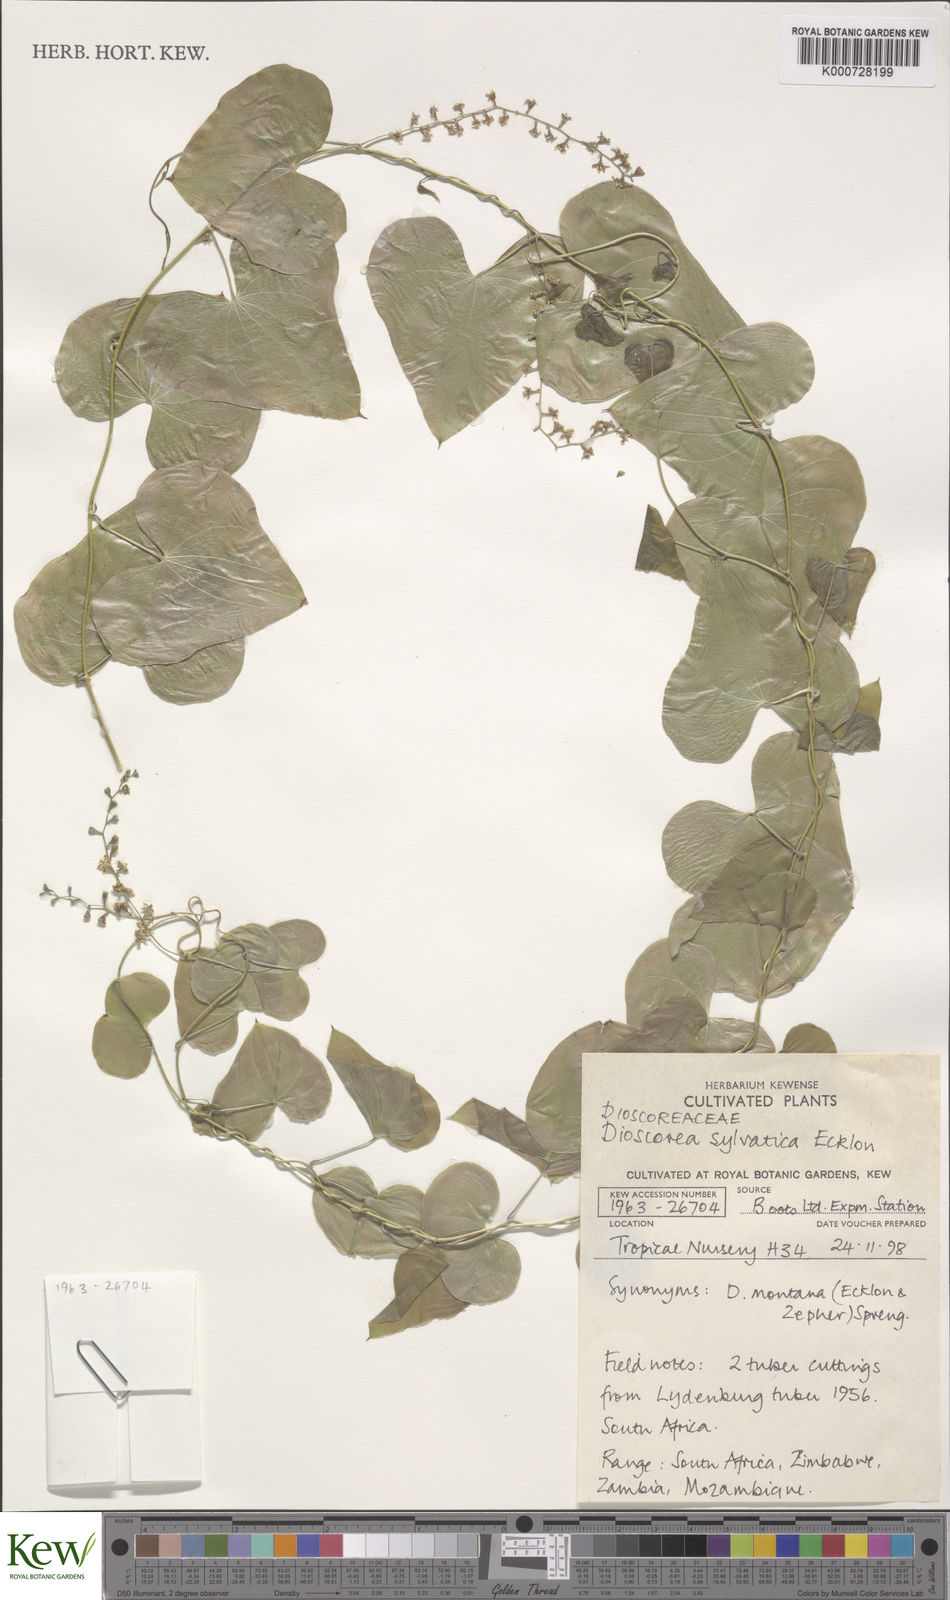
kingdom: Plantae
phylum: Tracheophyta
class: Liliopsida
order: Dioscoreales
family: Dioscoreaceae
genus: Dioscorea
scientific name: Dioscorea sylvatica
